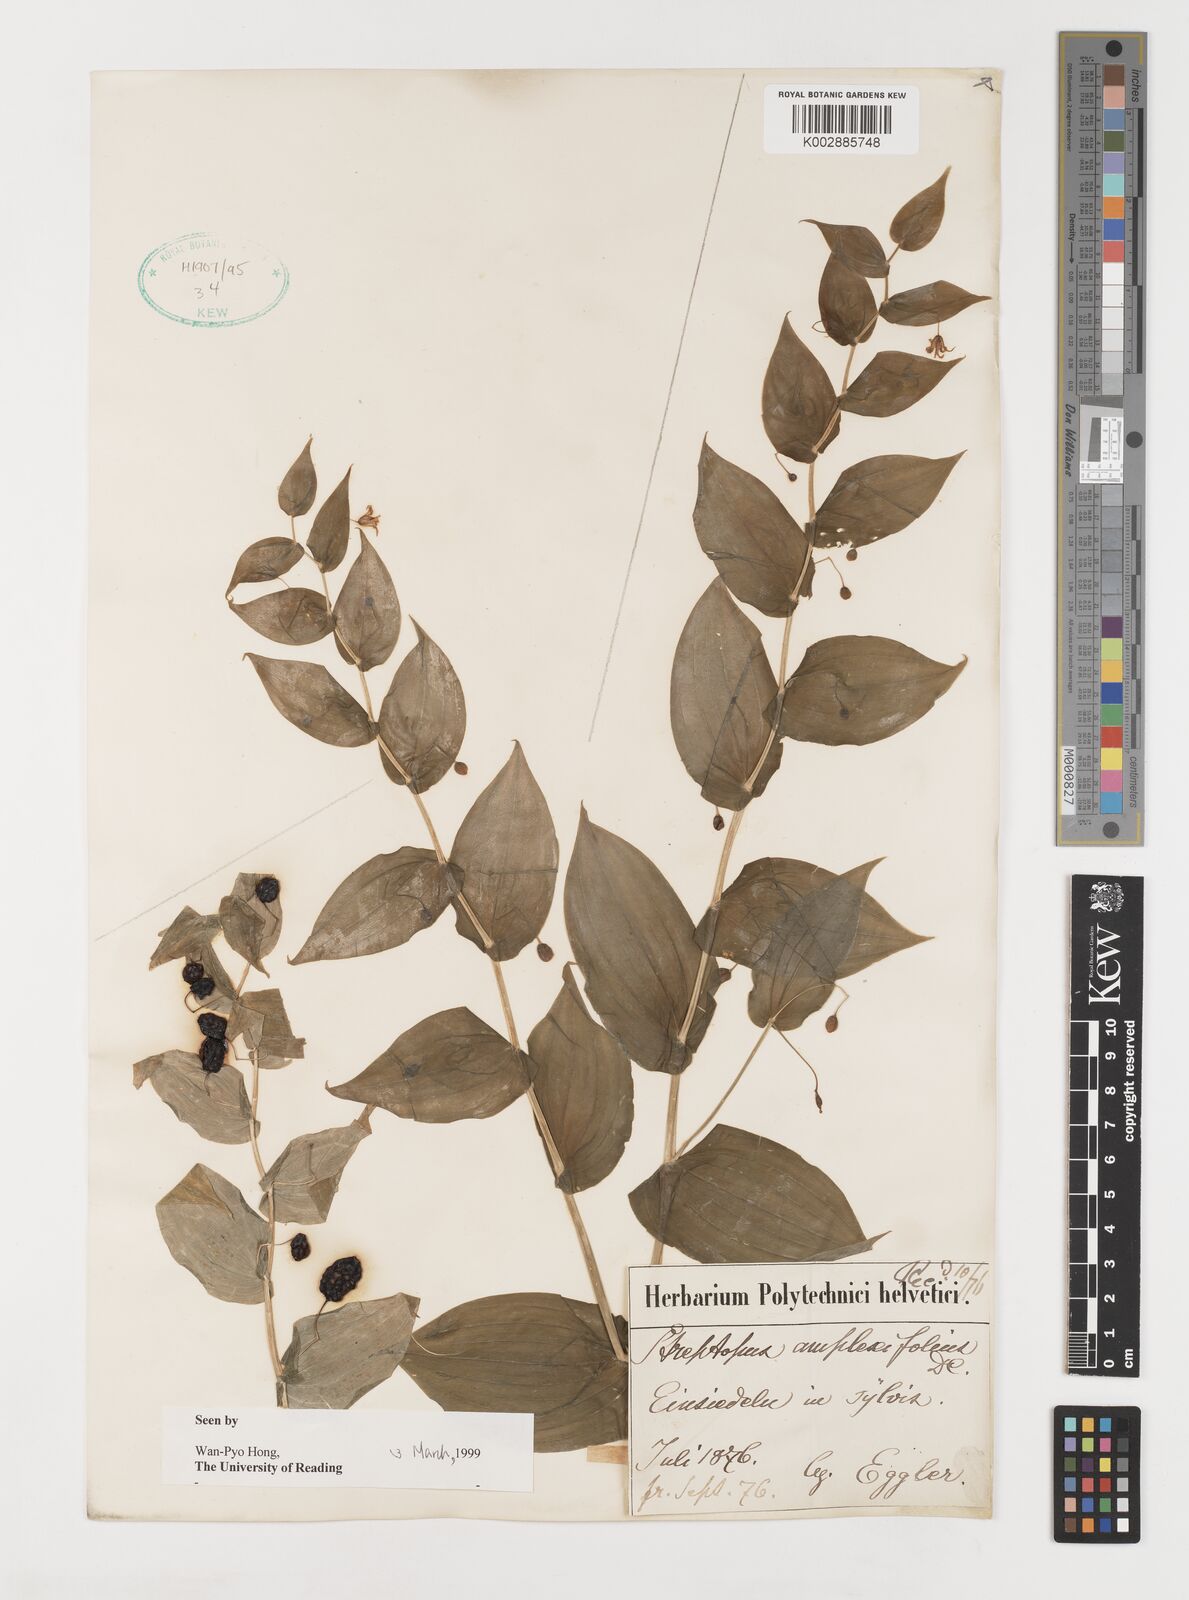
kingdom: Plantae
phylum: Tracheophyta
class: Liliopsida
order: Liliales
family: Liliaceae
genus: Streptopus
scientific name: Streptopus amplexifolius
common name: Clasp twisted stalk
